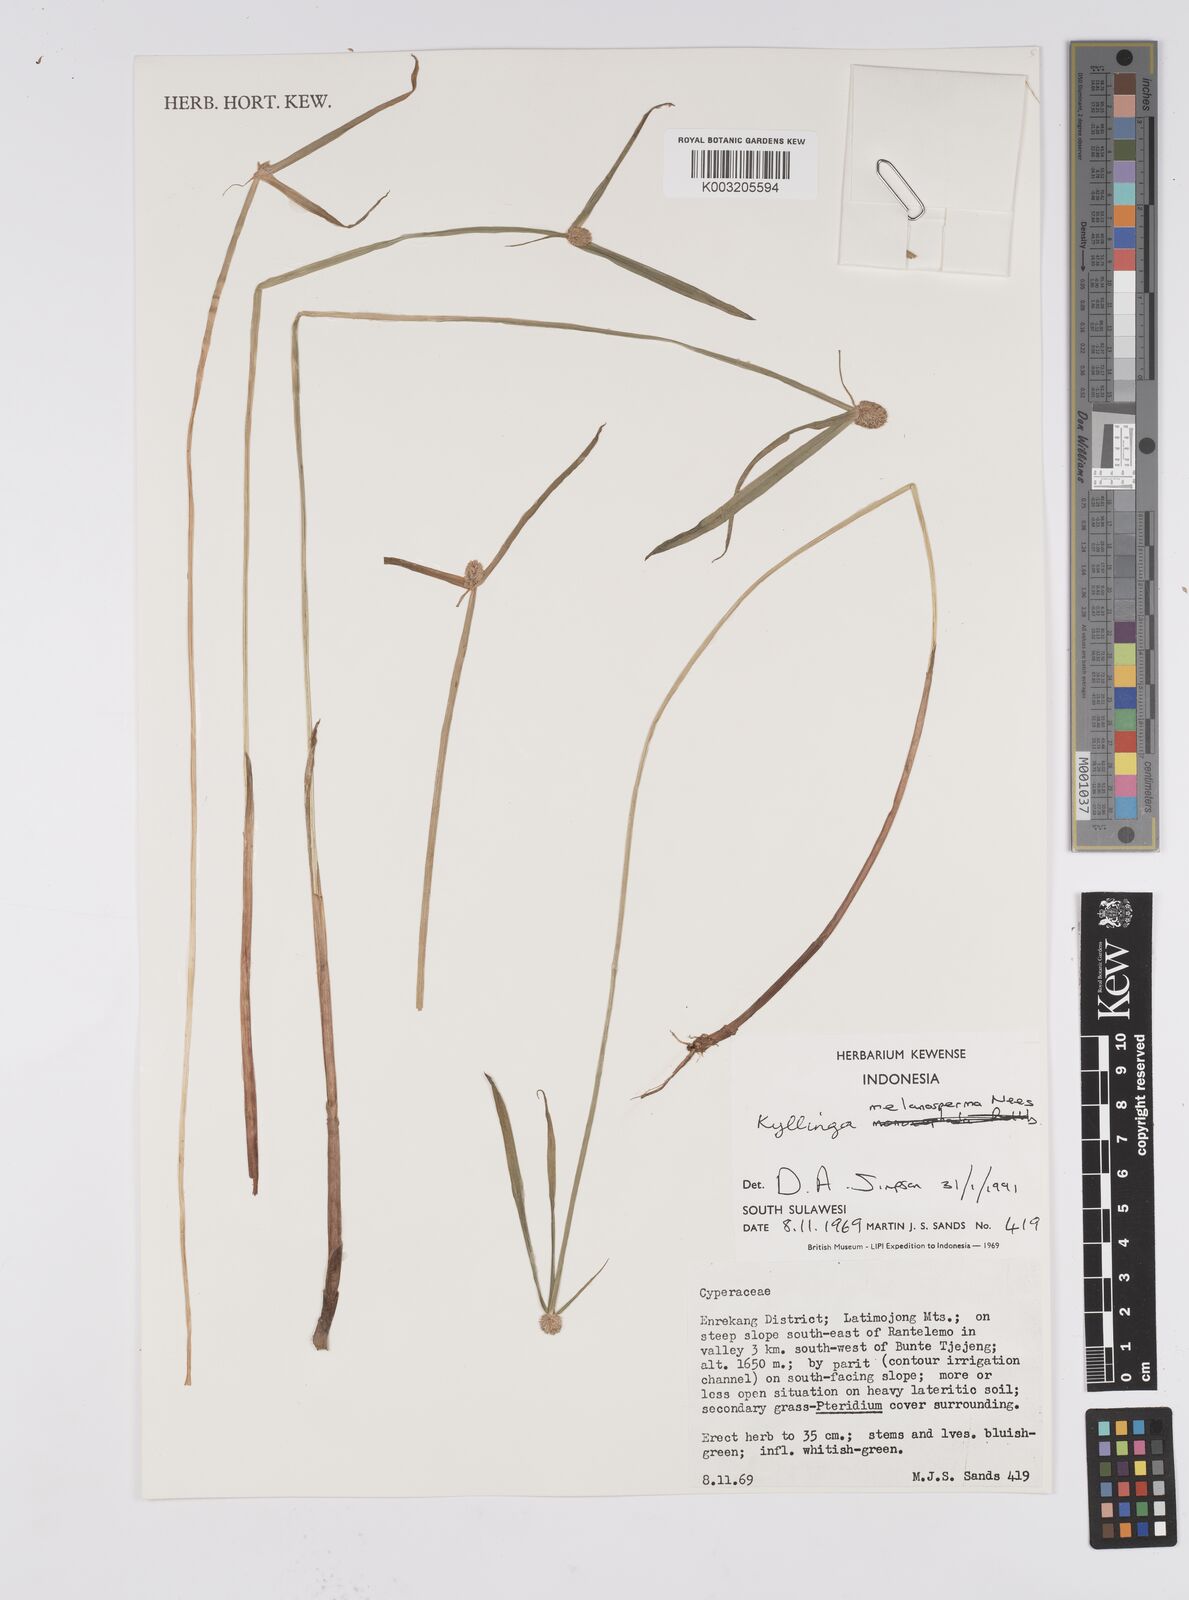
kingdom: Plantae
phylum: Tracheophyta
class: Liliopsida
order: Poales
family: Cyperaceae
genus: Cyperus
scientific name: Cyperus melanospermus
